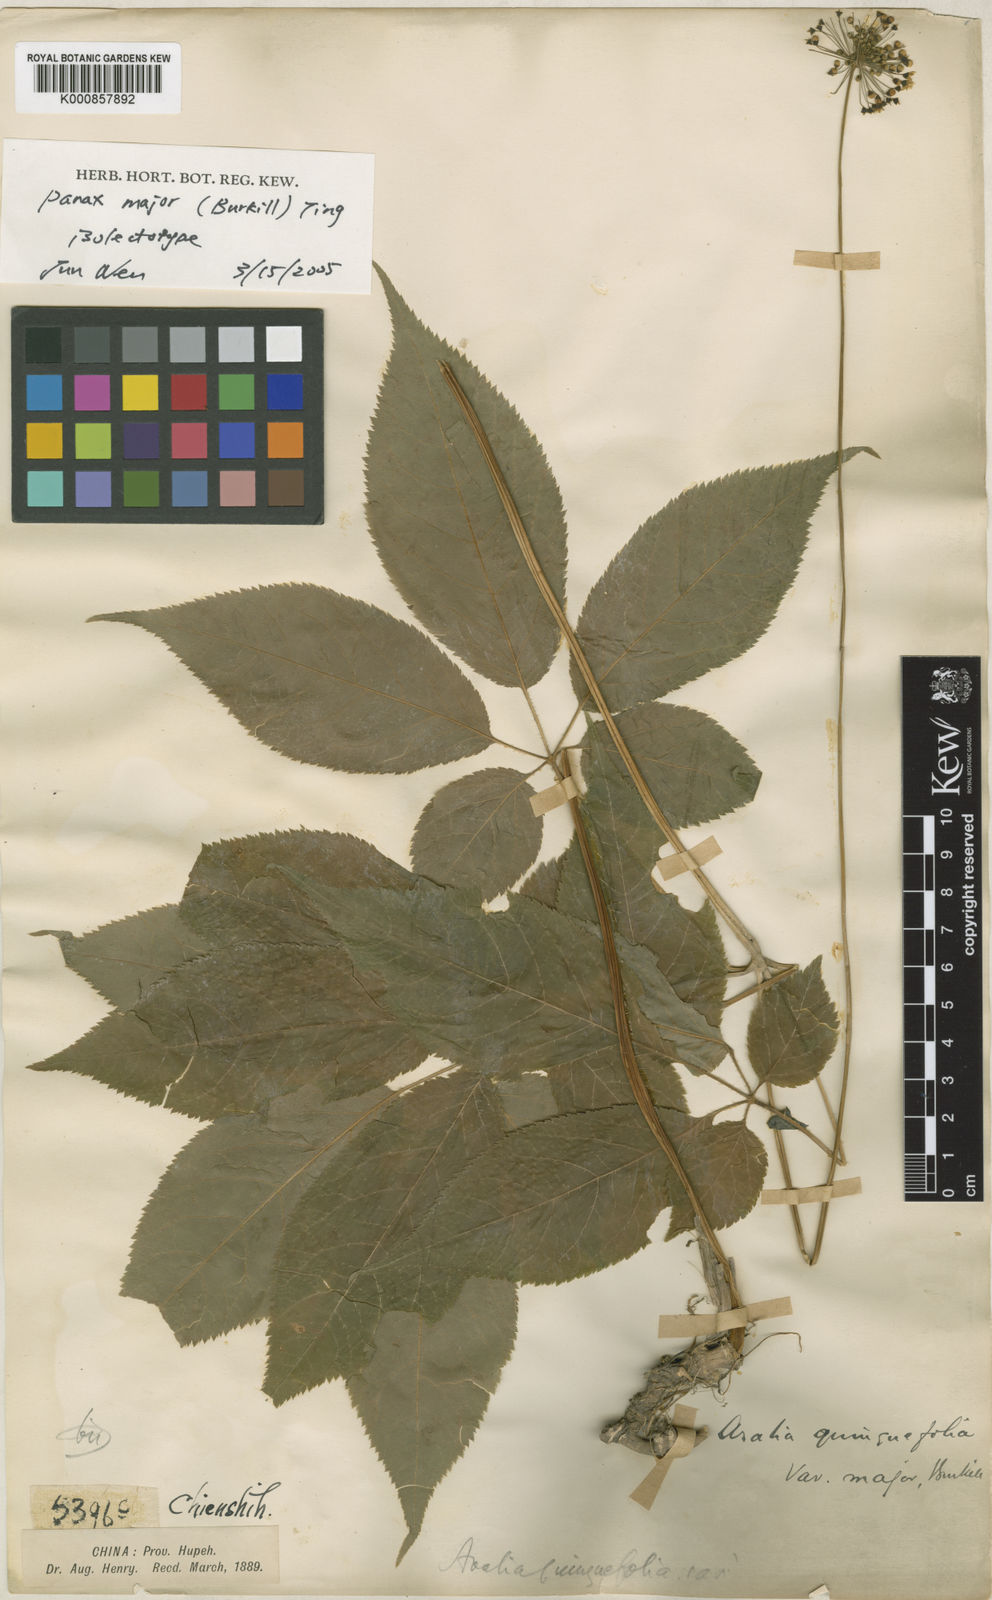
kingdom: Plantae
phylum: Tracheophyta
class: Magnoliopsida
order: Apiales
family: Araliaceae
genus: Panax
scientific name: Panax
